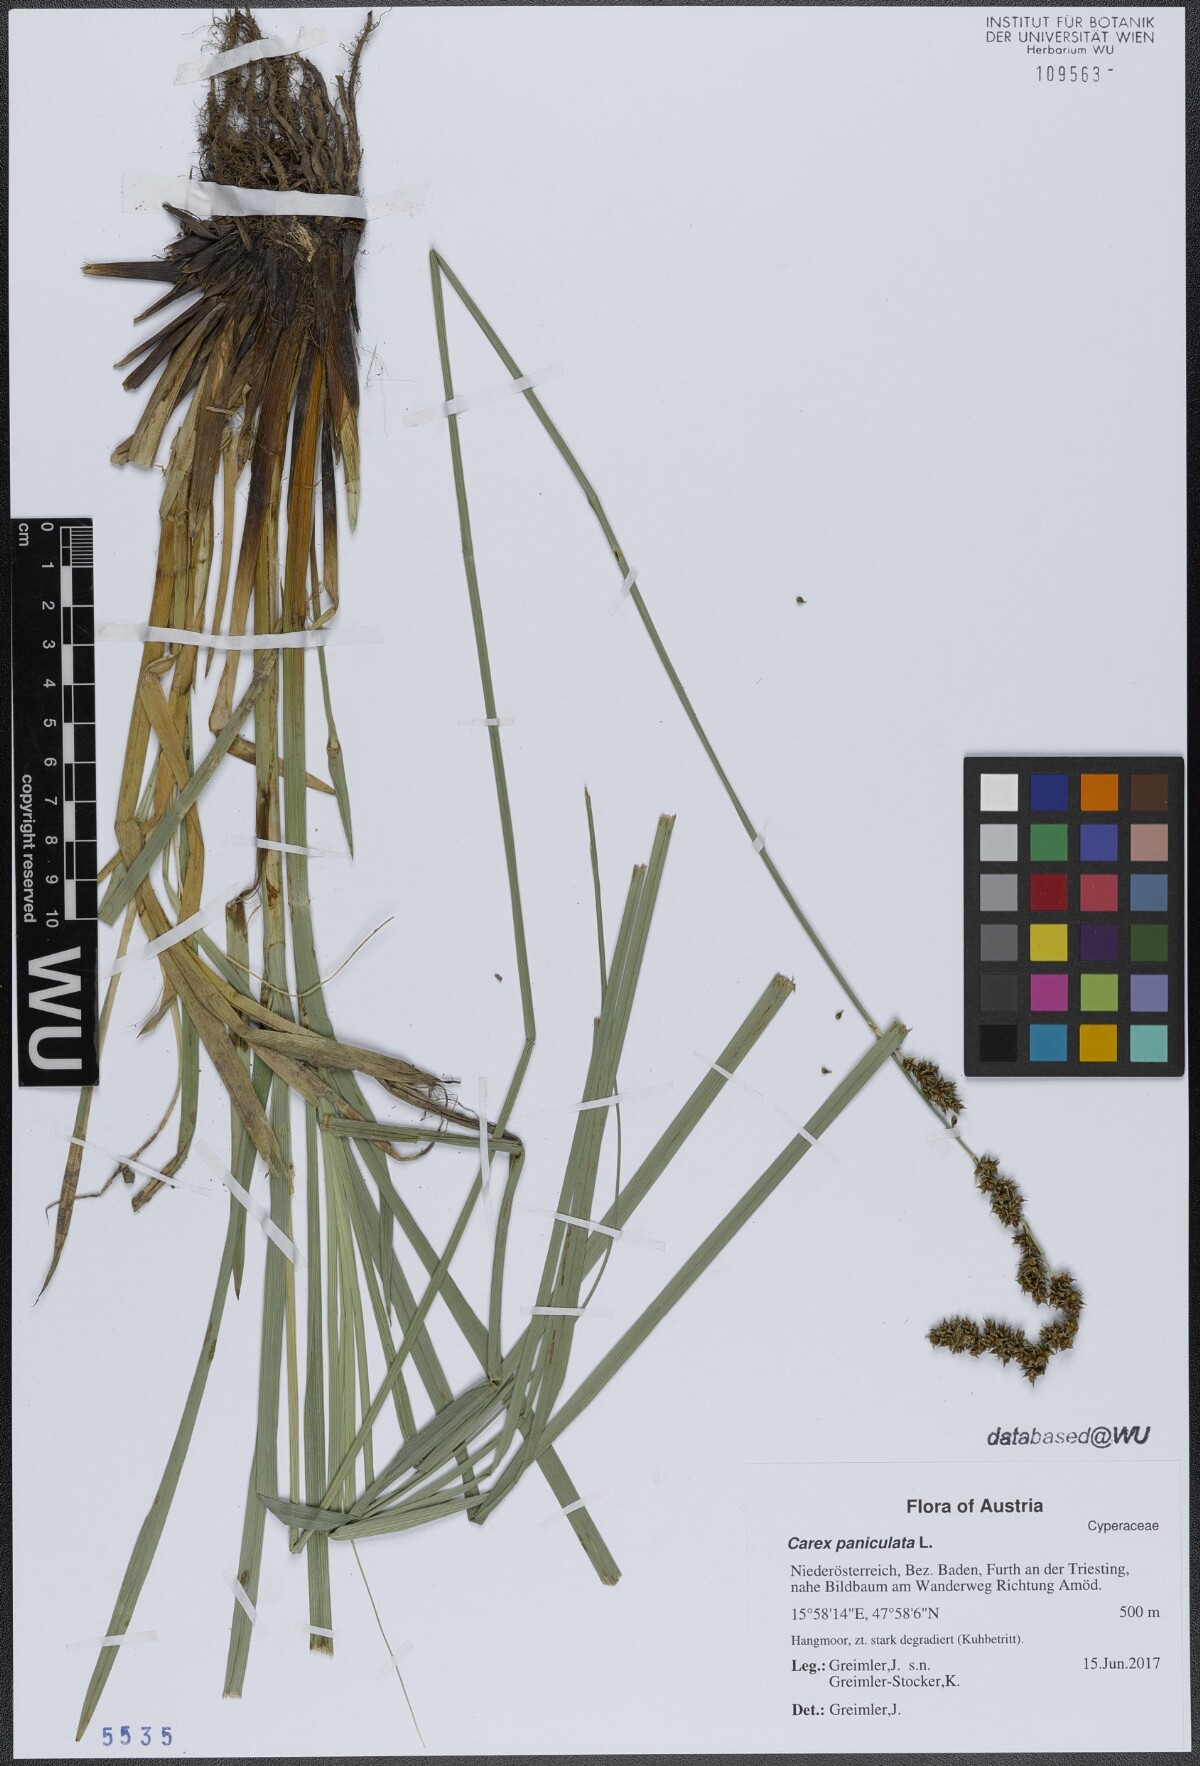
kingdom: Plantae
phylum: Tracheophyta
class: Liliopsida
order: Poales
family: Cyperaceae
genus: Carex
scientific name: Carex paniculata
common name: Greater tussock-sedge
